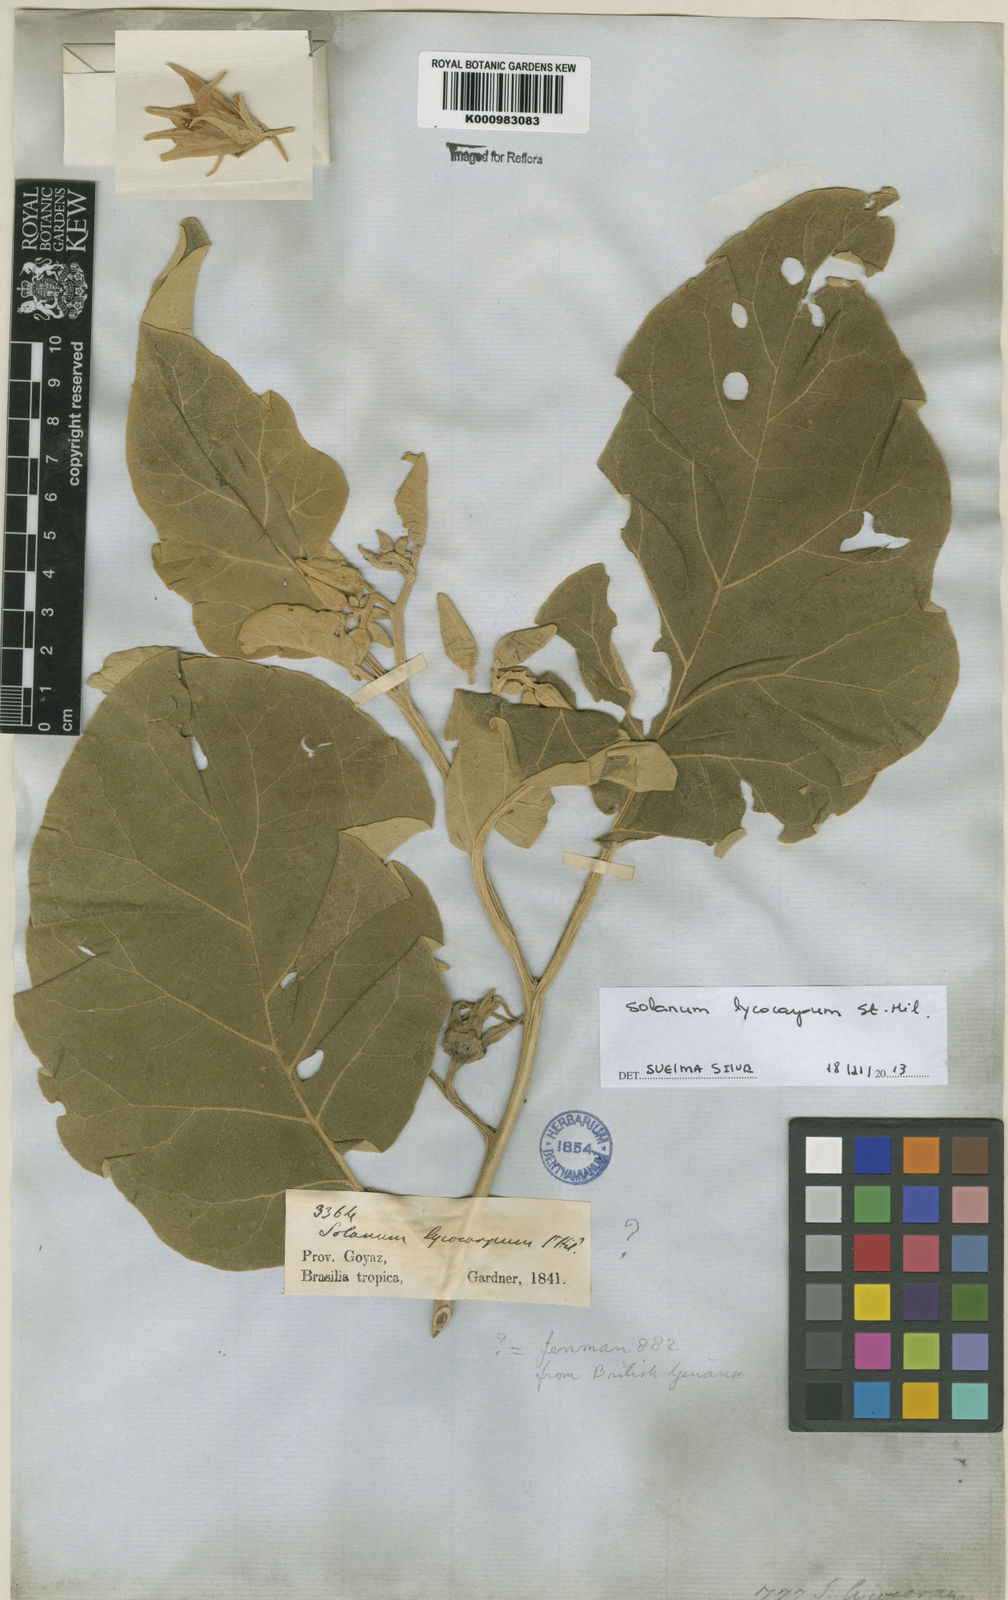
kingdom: Plantae
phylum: Tracheophyta
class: Magnoliopsida
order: Solanales
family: Solanaceae
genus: Solanum
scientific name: Solanum lycocarpum
